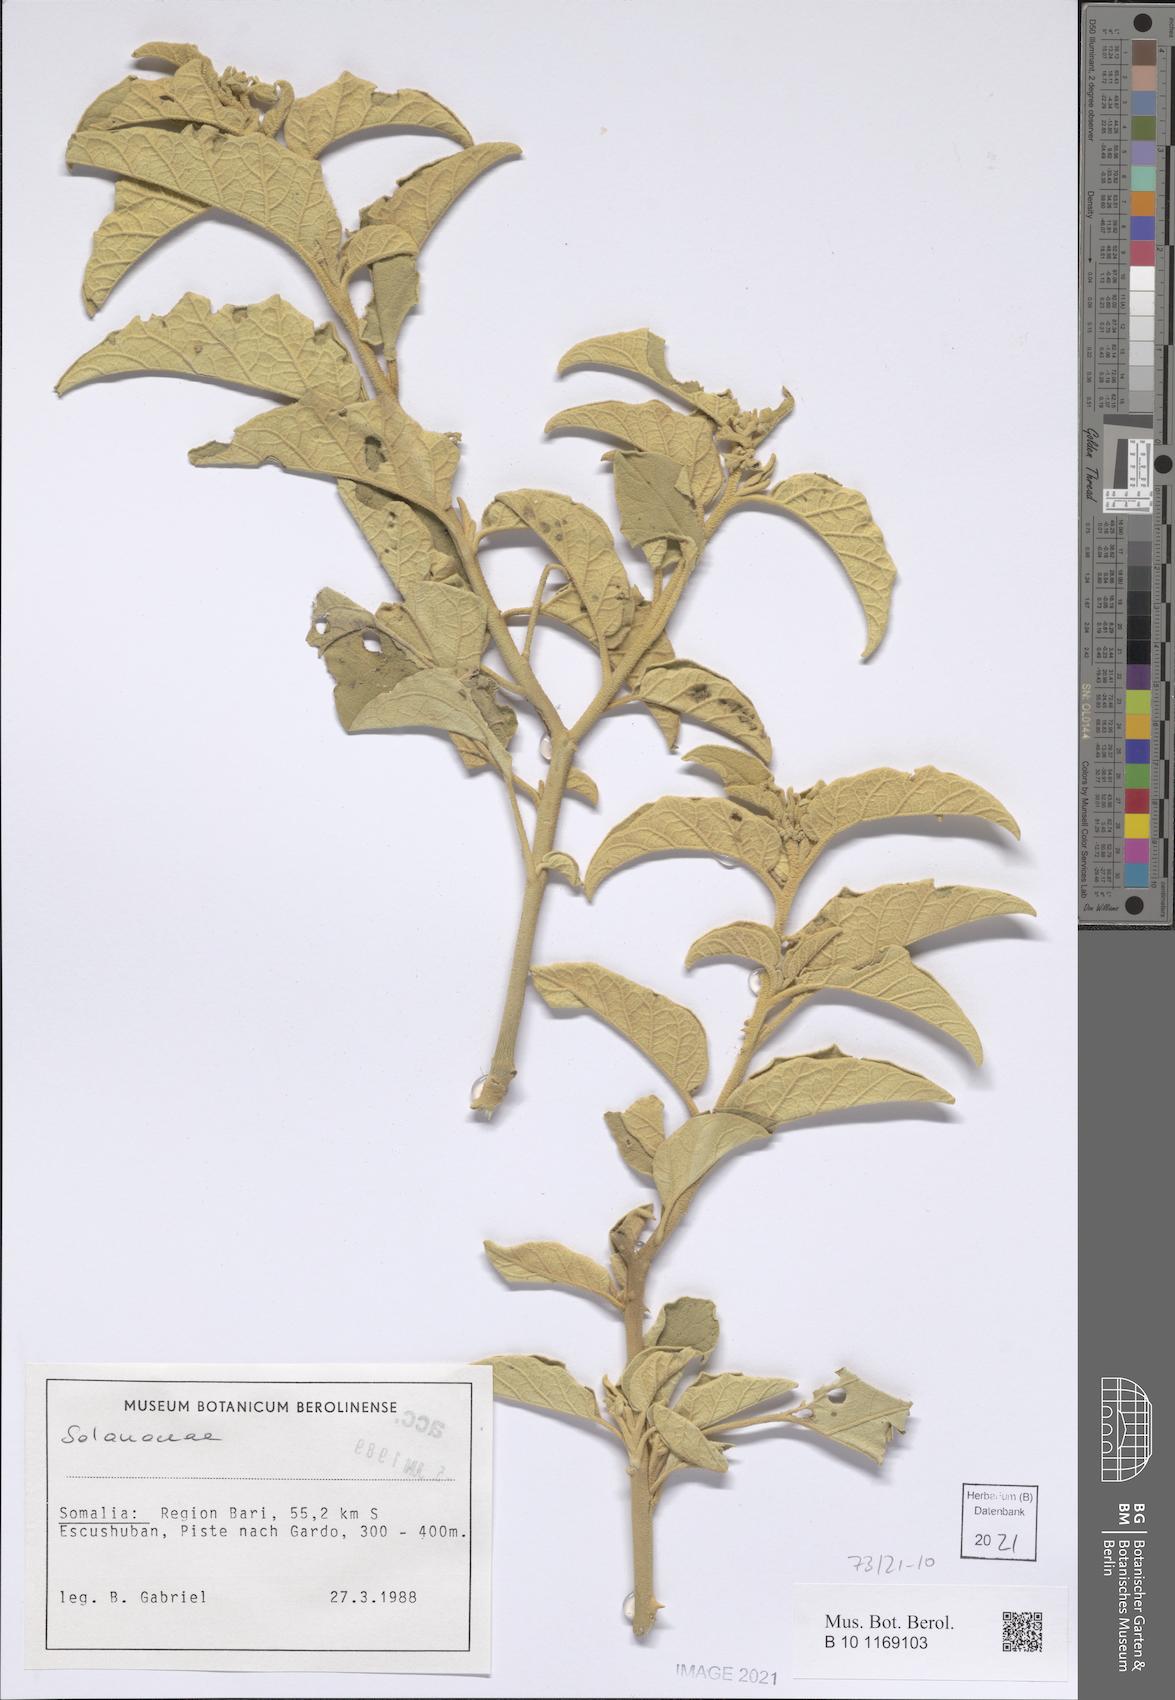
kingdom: Plantae
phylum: Tracheophyta
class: Magnoliopsida
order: Solanales
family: Solanaceae
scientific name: Solanaceae
